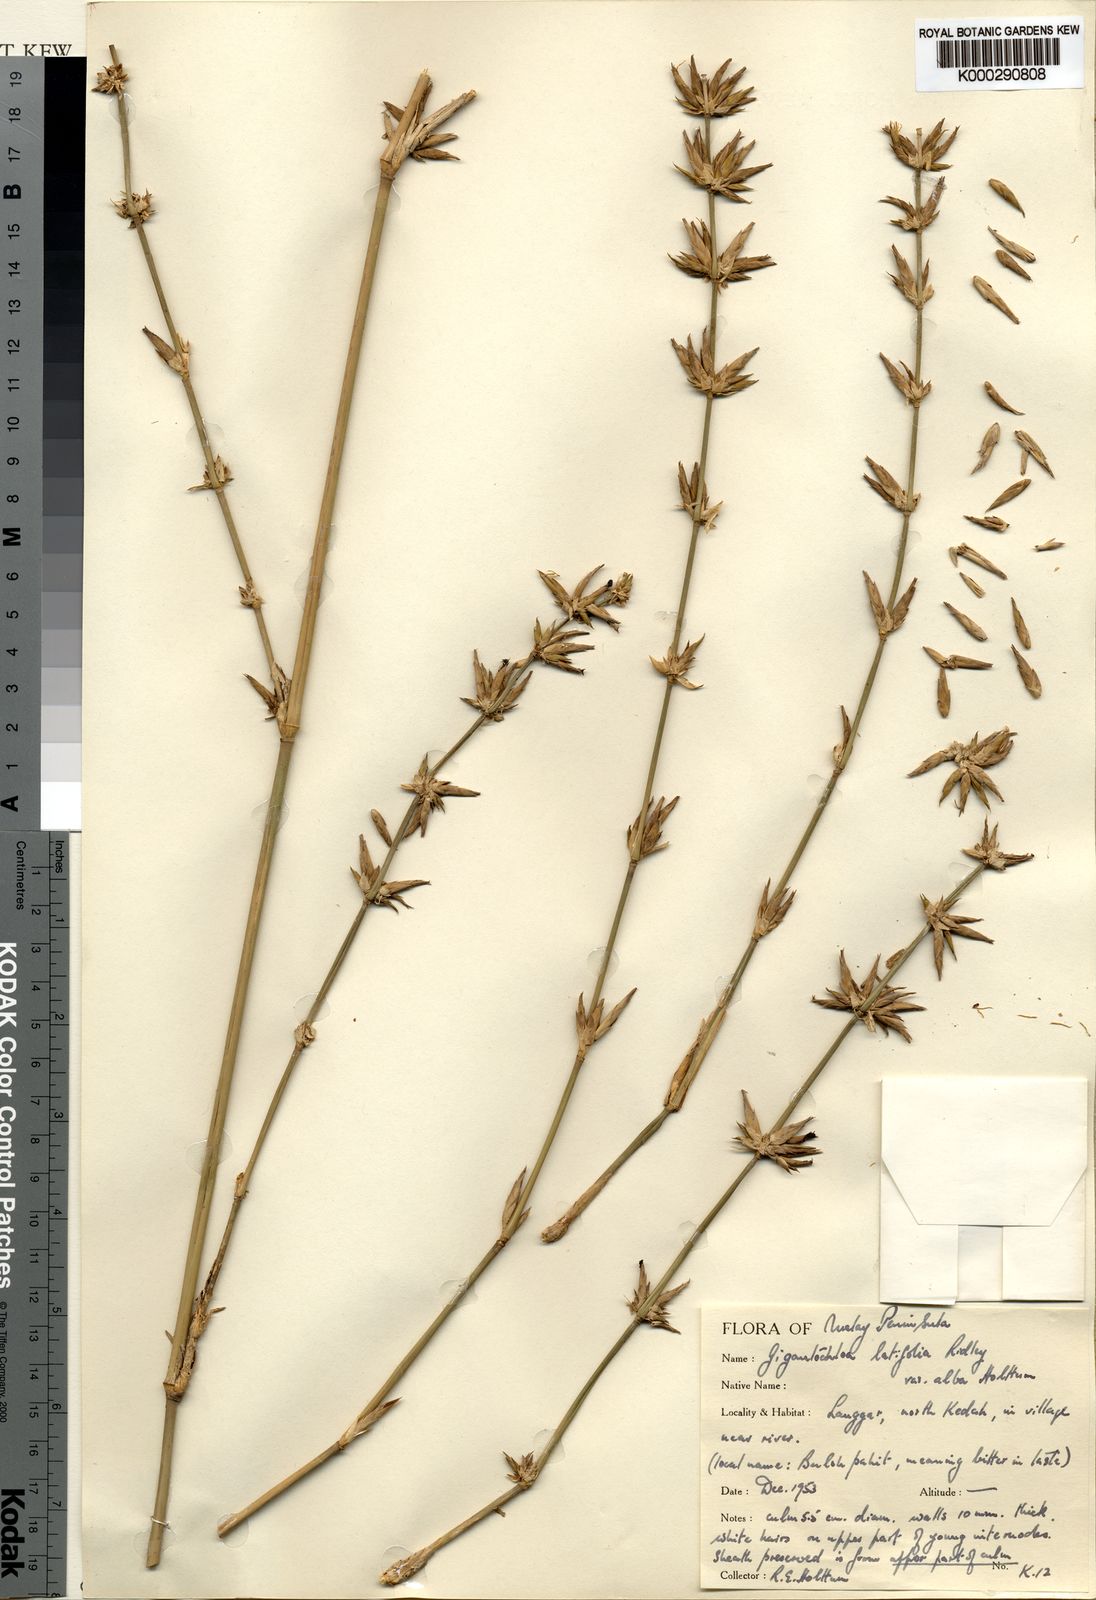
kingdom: Plantae
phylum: Tracheophyta
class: Liliopsida
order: Poales
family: Poaceae
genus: Gigantochloa
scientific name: Gigantochloa latifolia
